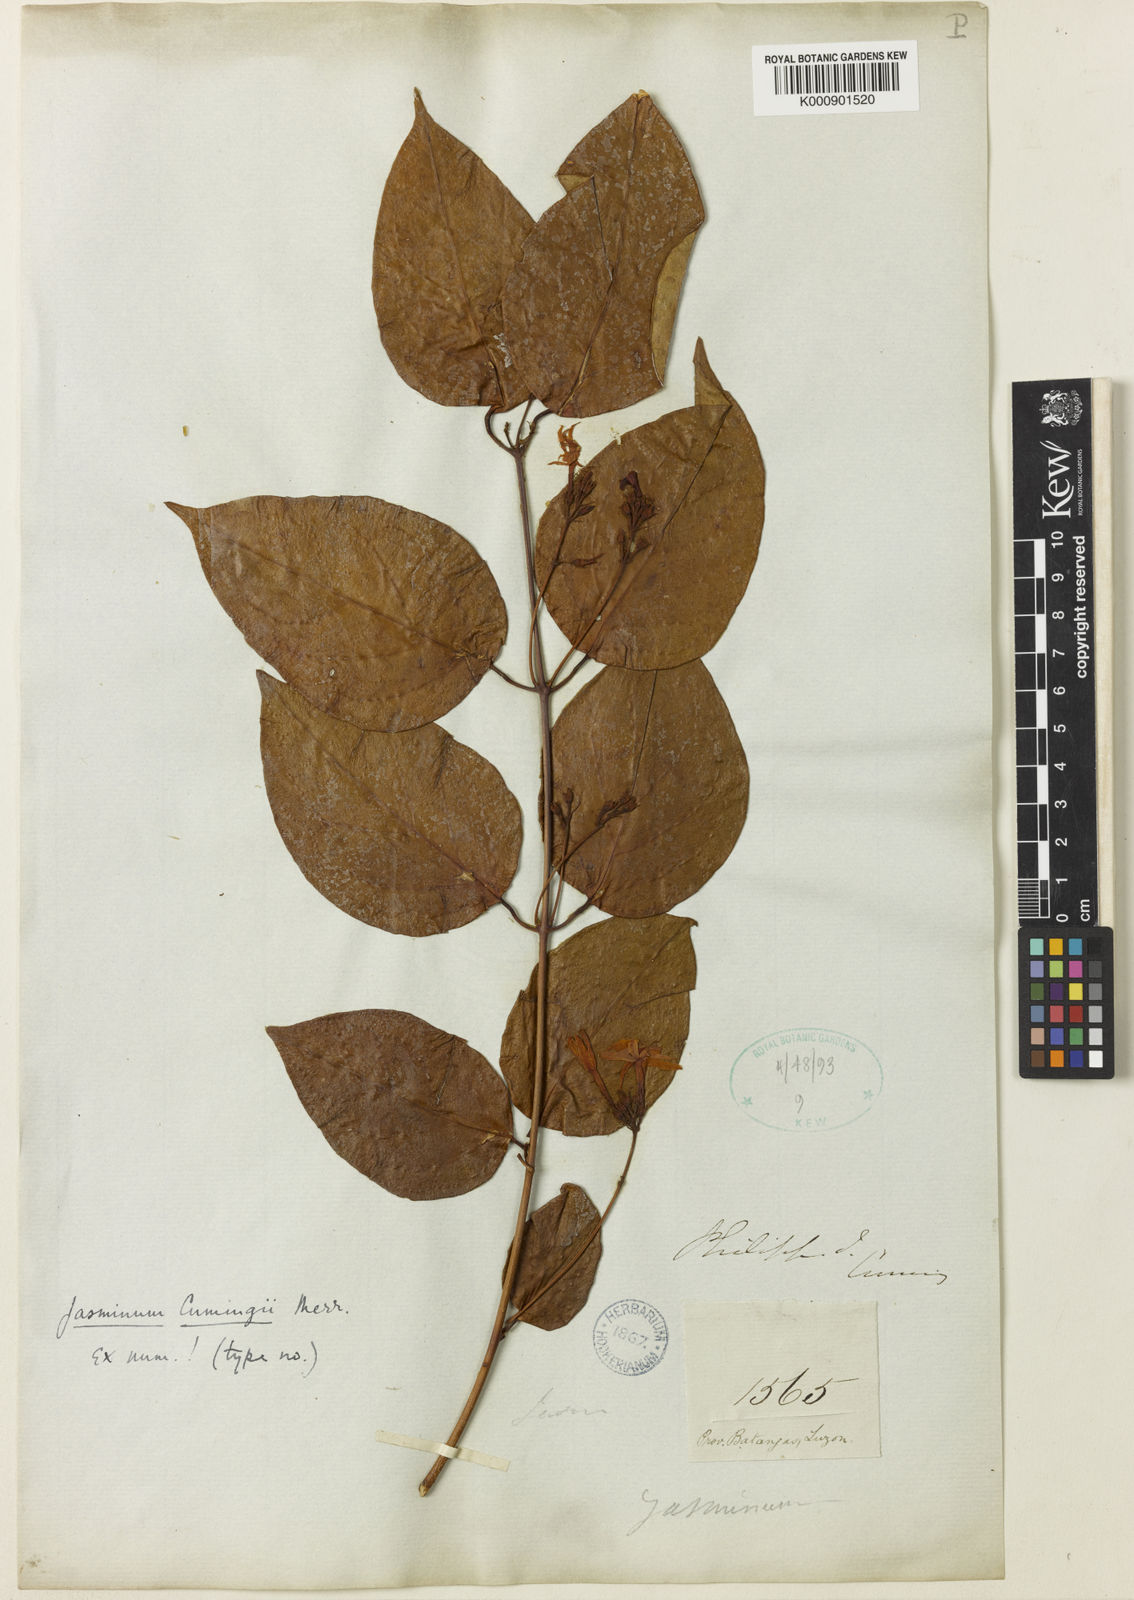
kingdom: Plantae
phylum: Tracheophyta
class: Magnoliopsida
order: Lamiales
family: Oleaceae
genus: Jasminum
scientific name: Jasminum cumingii
